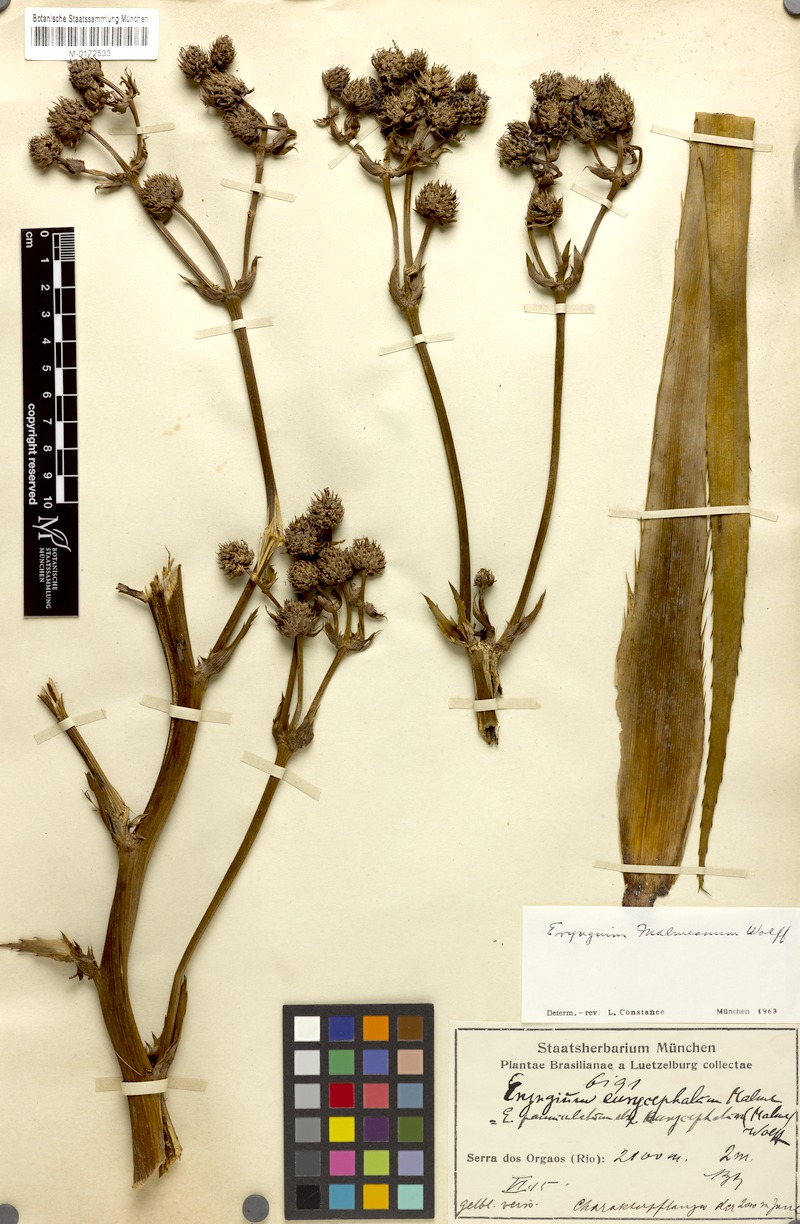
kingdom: Plantae
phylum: Tracheophyta
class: Magnoliopsida
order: Apiales
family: Apiaceae
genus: Eryngium
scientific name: Eryngium malmeanum
